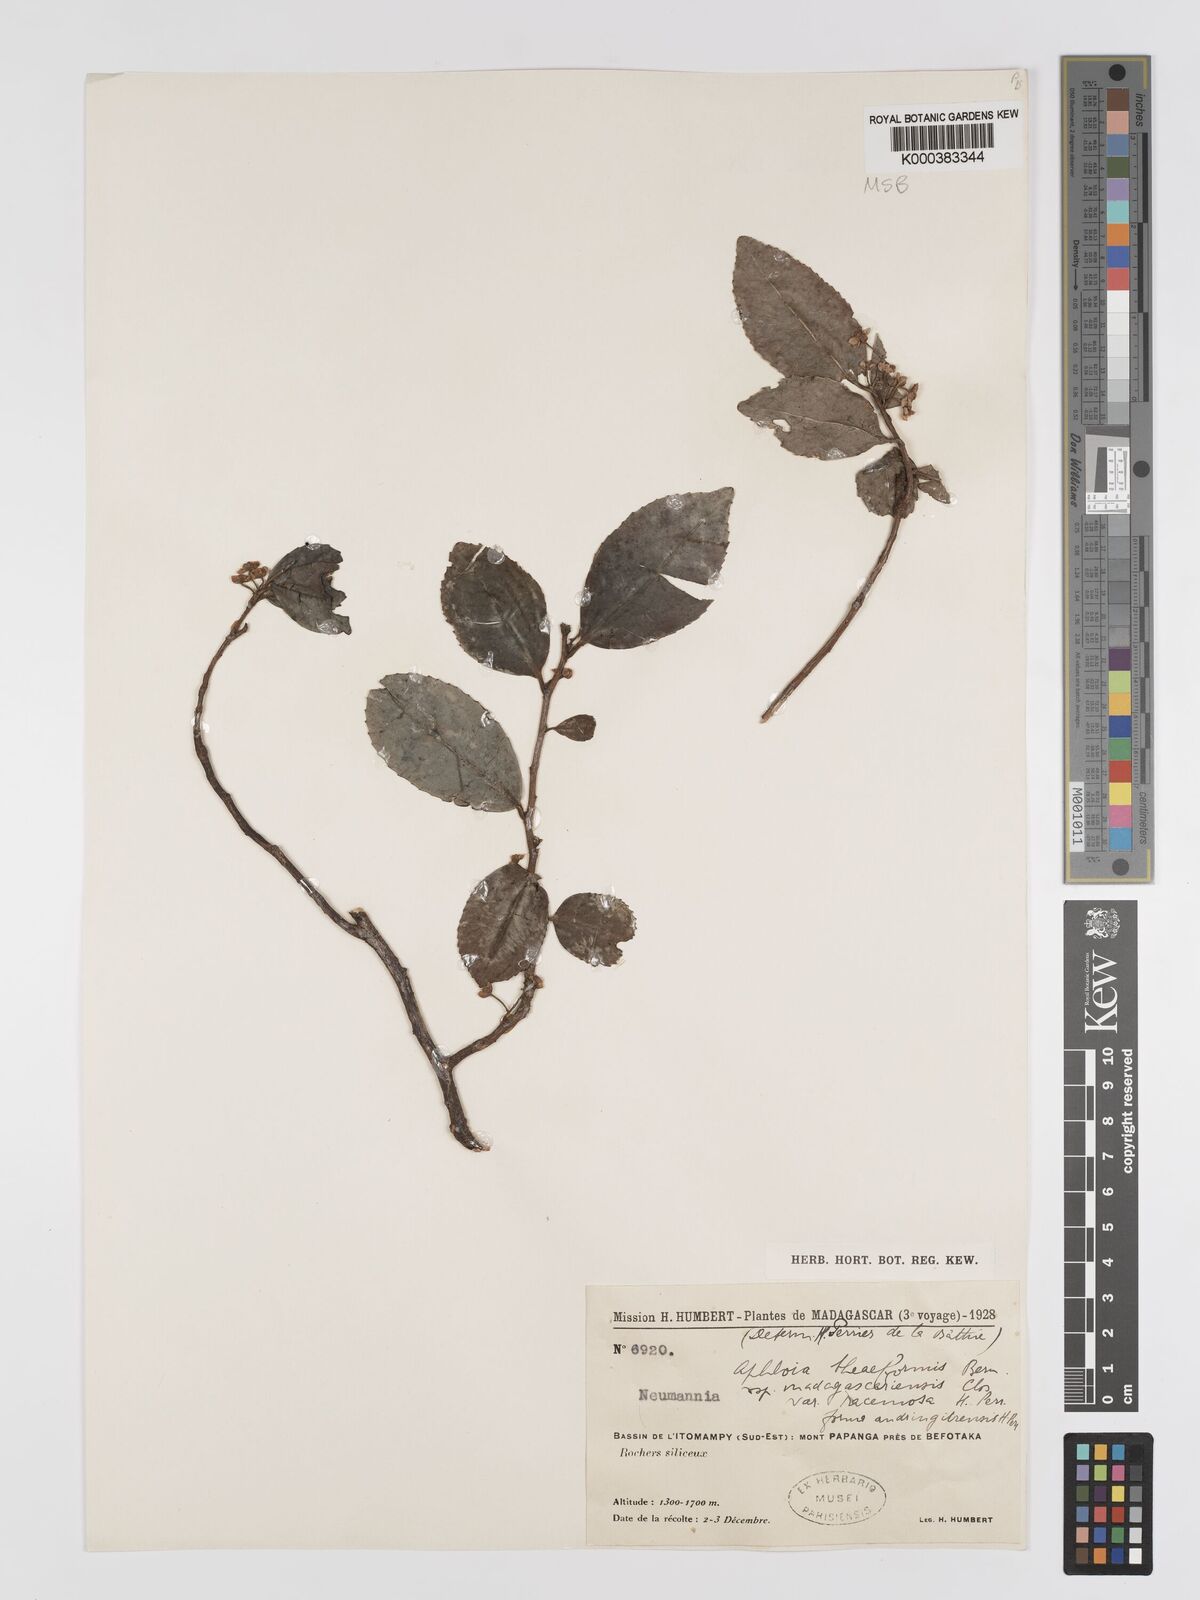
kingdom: Plantae
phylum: Tracheophyta
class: Magnoliopsida
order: Crossosomatales
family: Aphloiaceae
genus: Aphloia
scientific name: Aphloia theiformis
